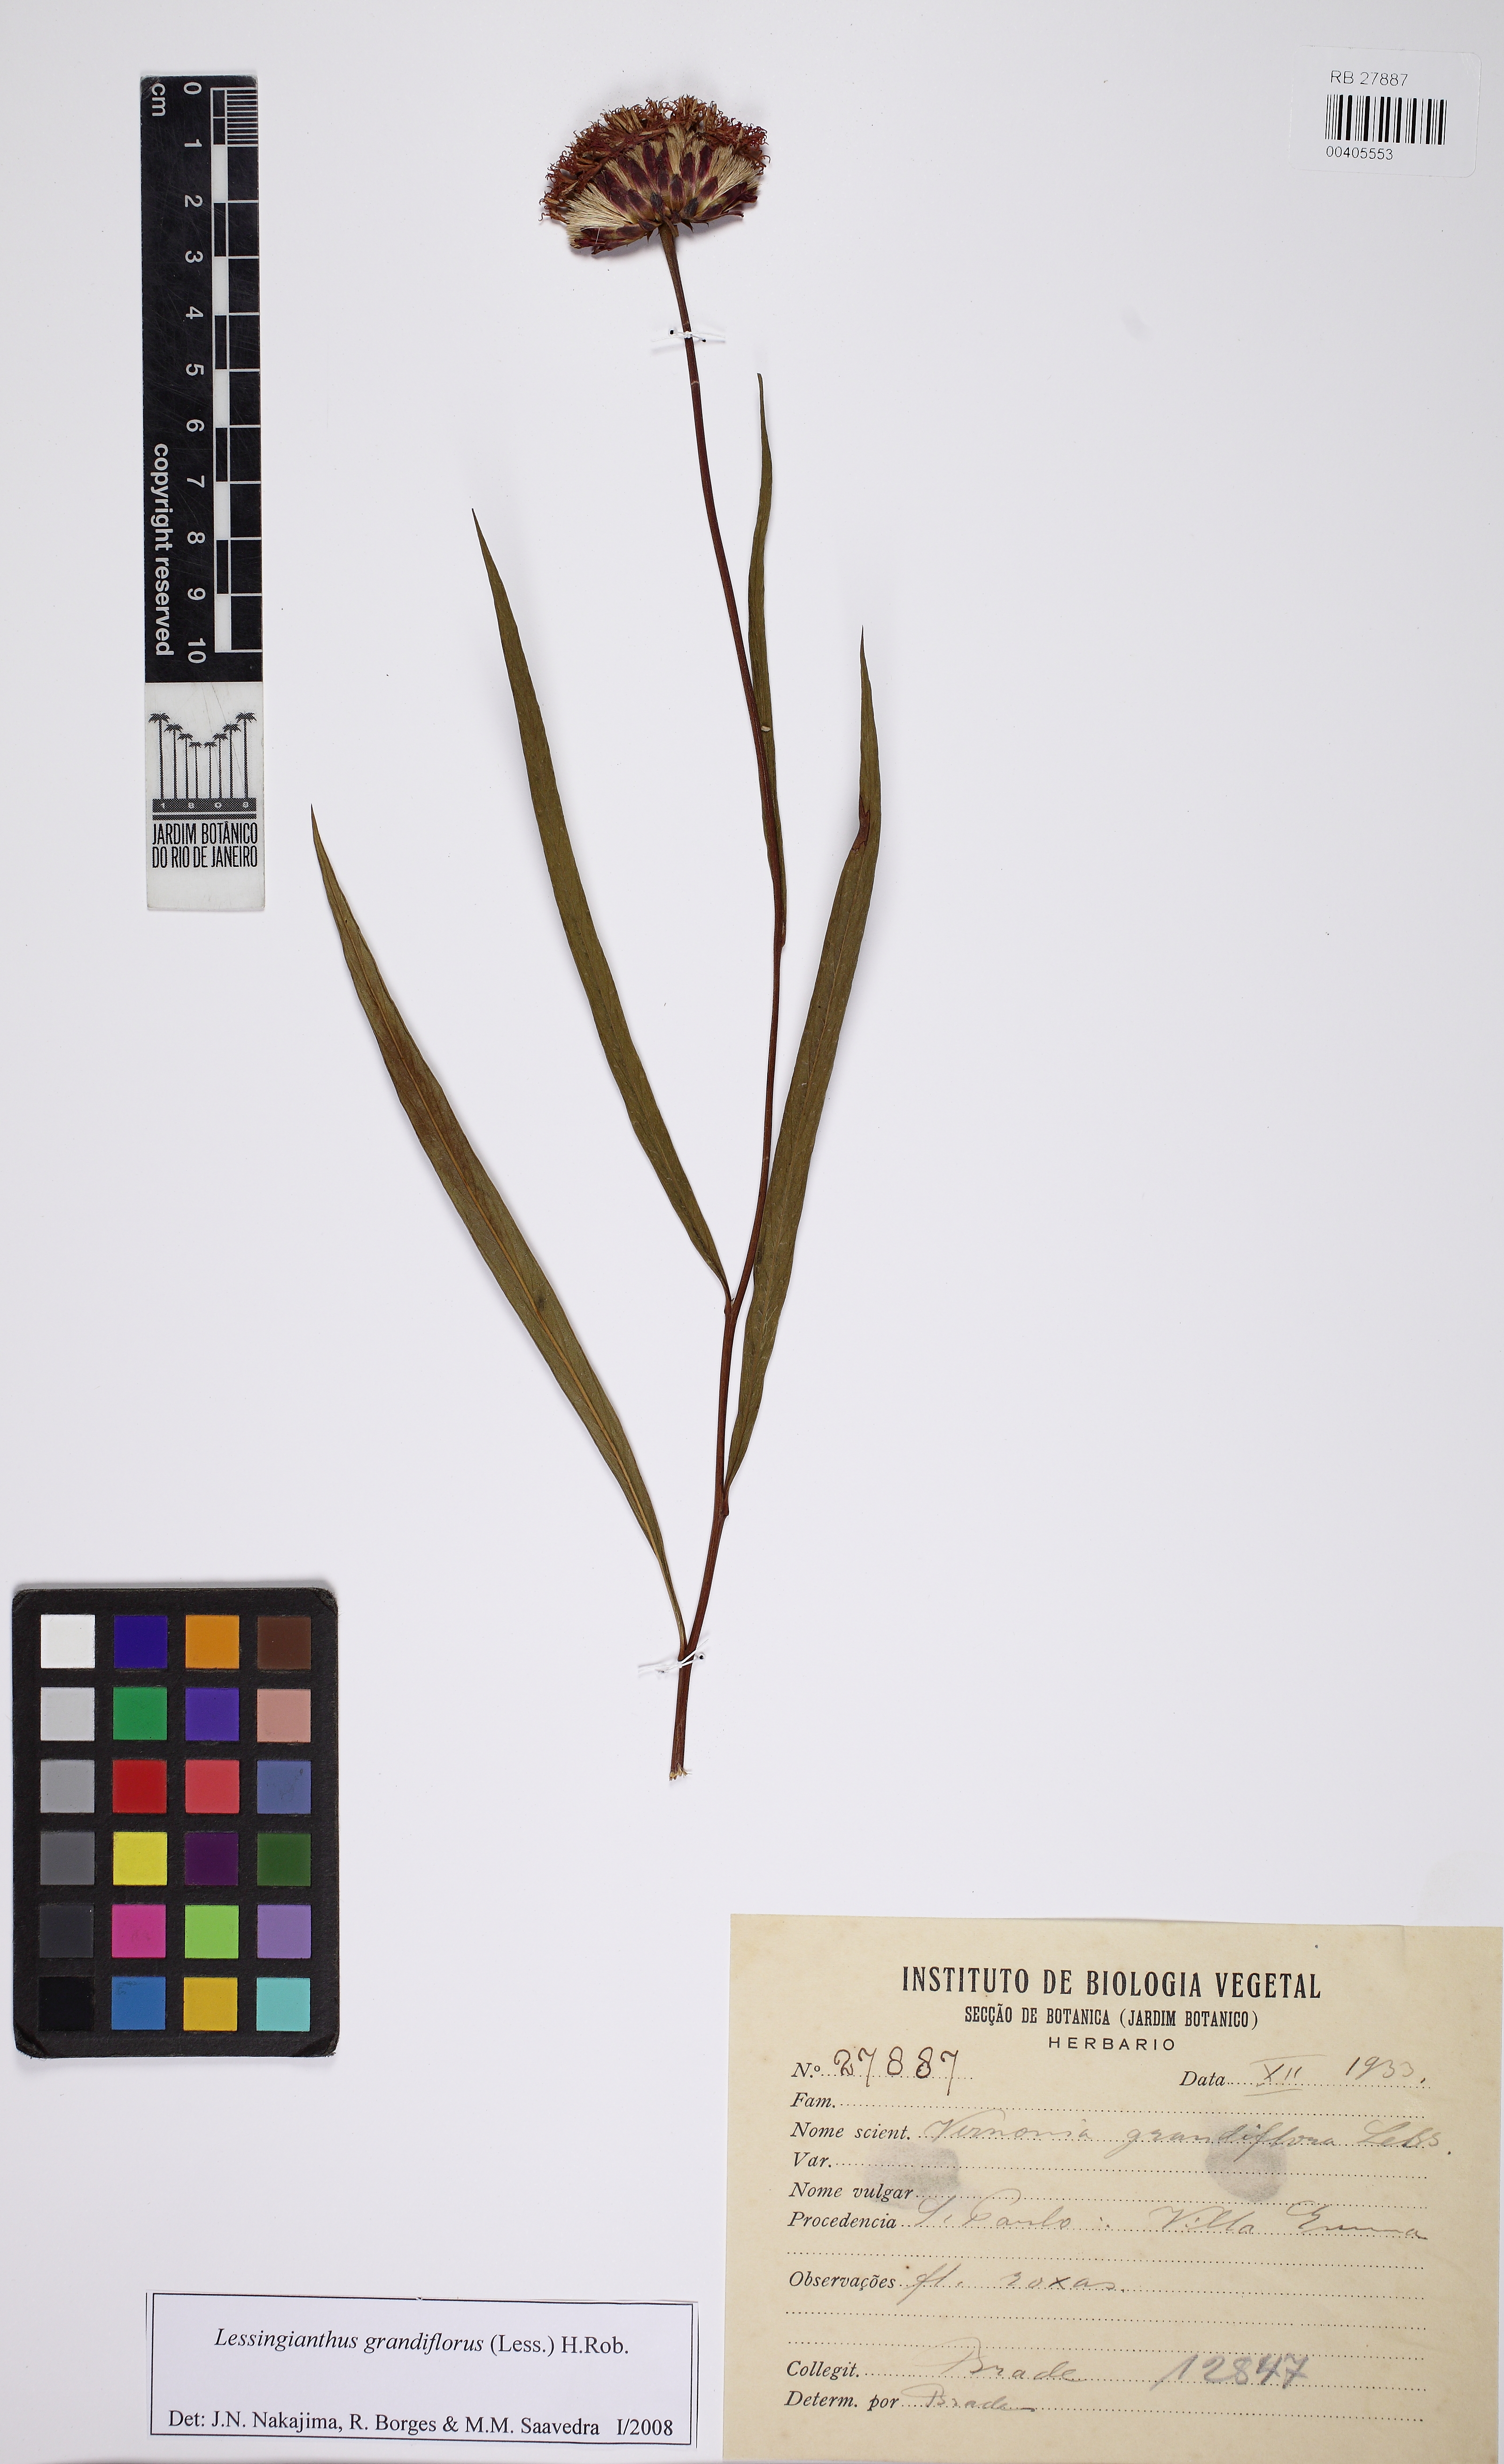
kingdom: Plantae
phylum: Tracheophyta
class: Magnoliopsida
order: Asterales
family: Asteraceae
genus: Lessingianthus
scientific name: Lessingianthus grandiflorus
